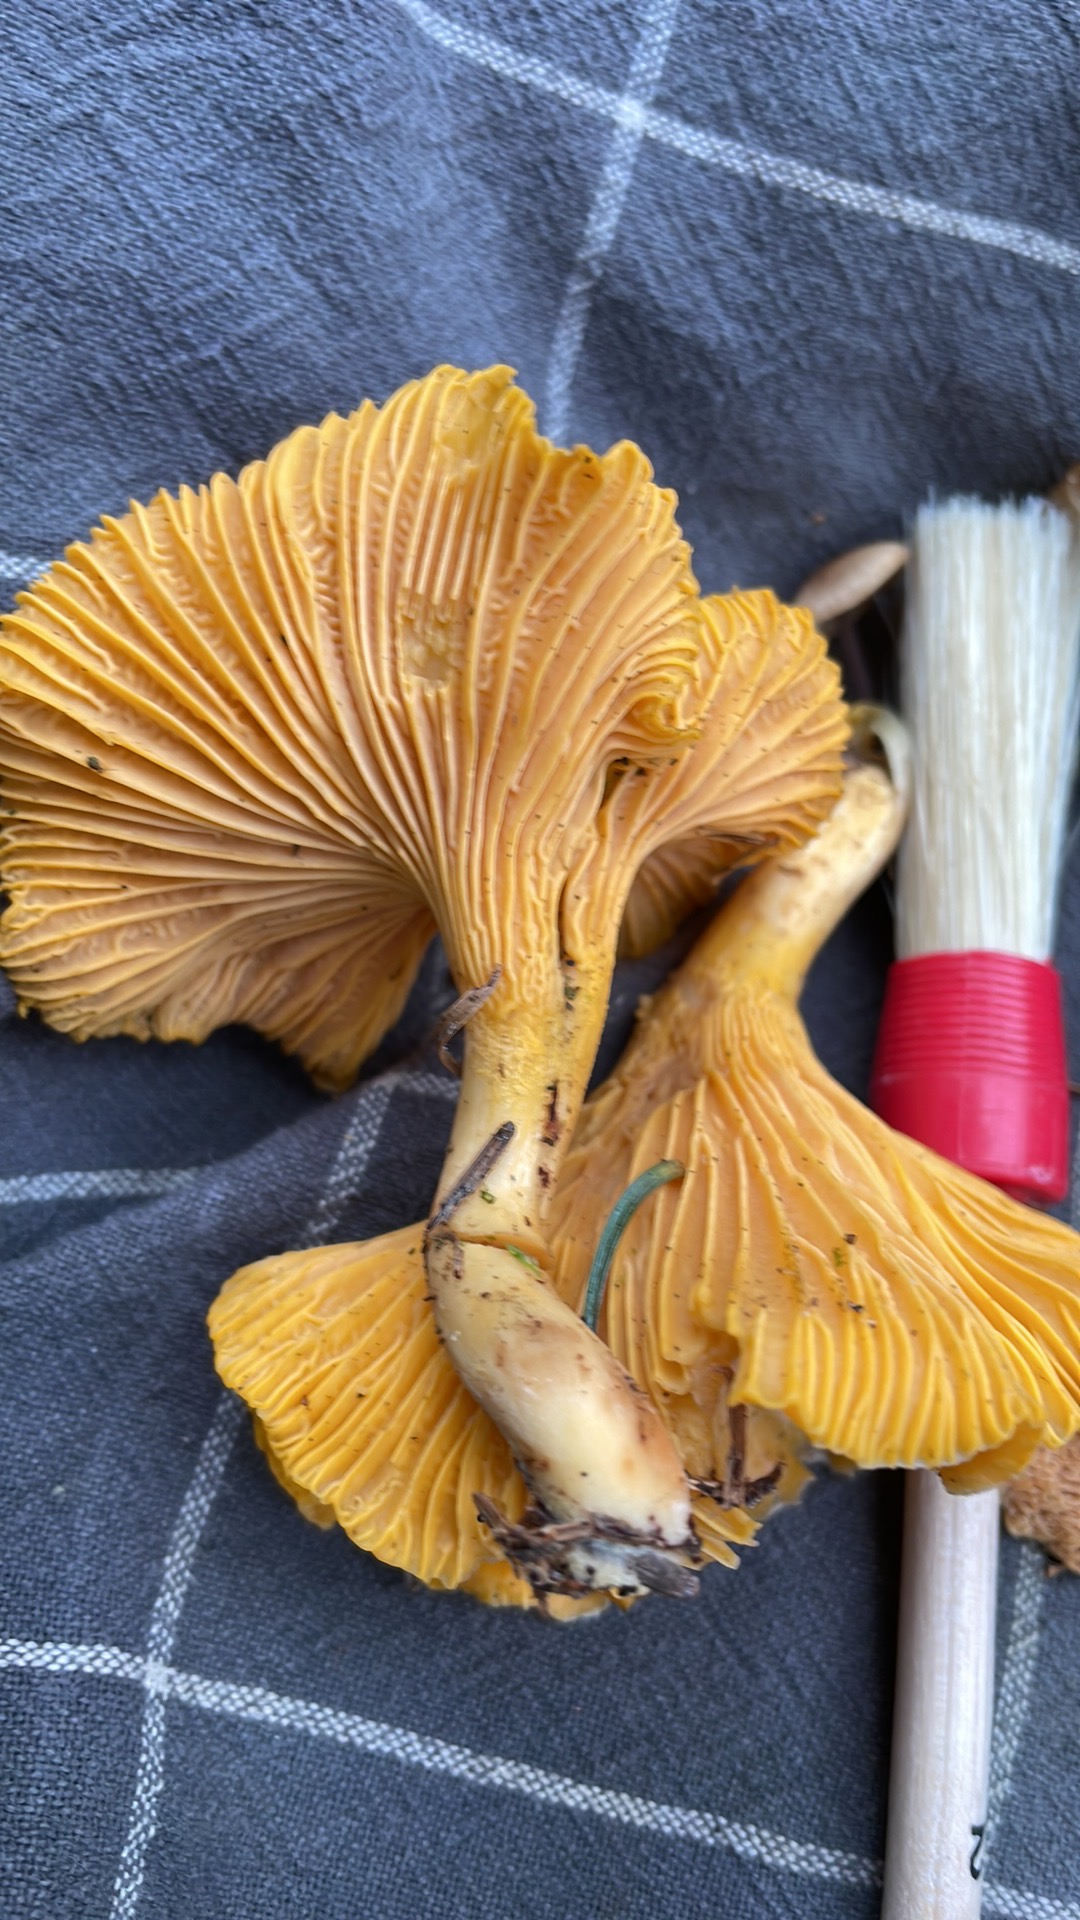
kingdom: Fungi
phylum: Basidiomycota
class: Agaricomycetes
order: Cantharellales
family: Hydnaceae
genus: Cantharellus
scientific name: Cantharellus cibarius
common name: almindelig kantarel
